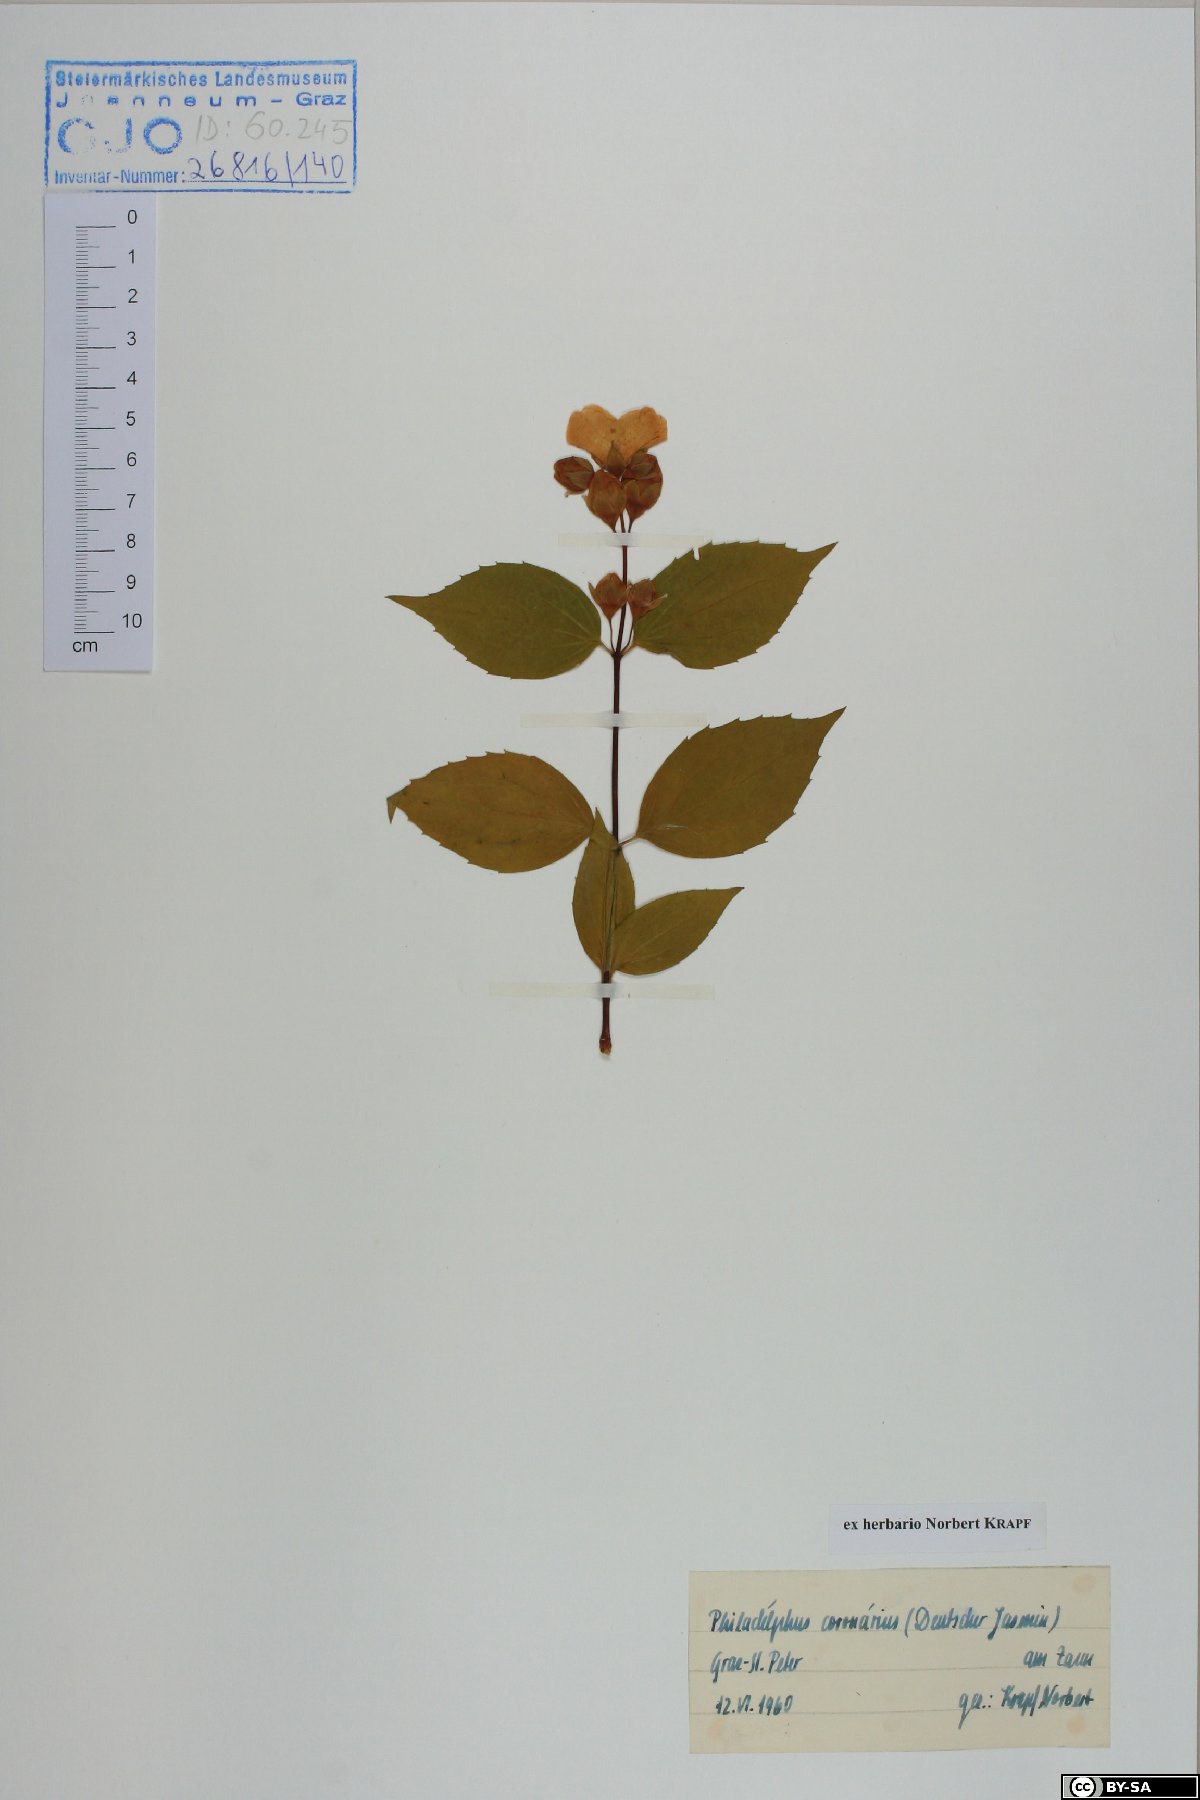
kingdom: Plantae
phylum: Tracheophyta
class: Magnoliopsida
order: Cornales
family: Hydrangeaceae
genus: Philadelphus
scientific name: Philadelphus coronarius
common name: Mock orange
